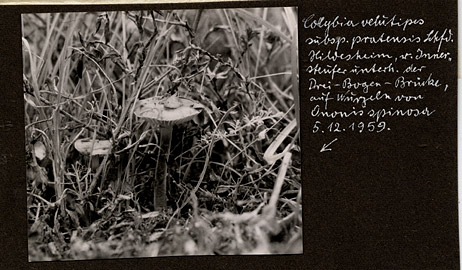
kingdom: Fungi
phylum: Basidiomycota
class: Agaricomycetes
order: Agaricales
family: Physalacriaceae
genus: Flammulina
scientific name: Flammulina ononidis
